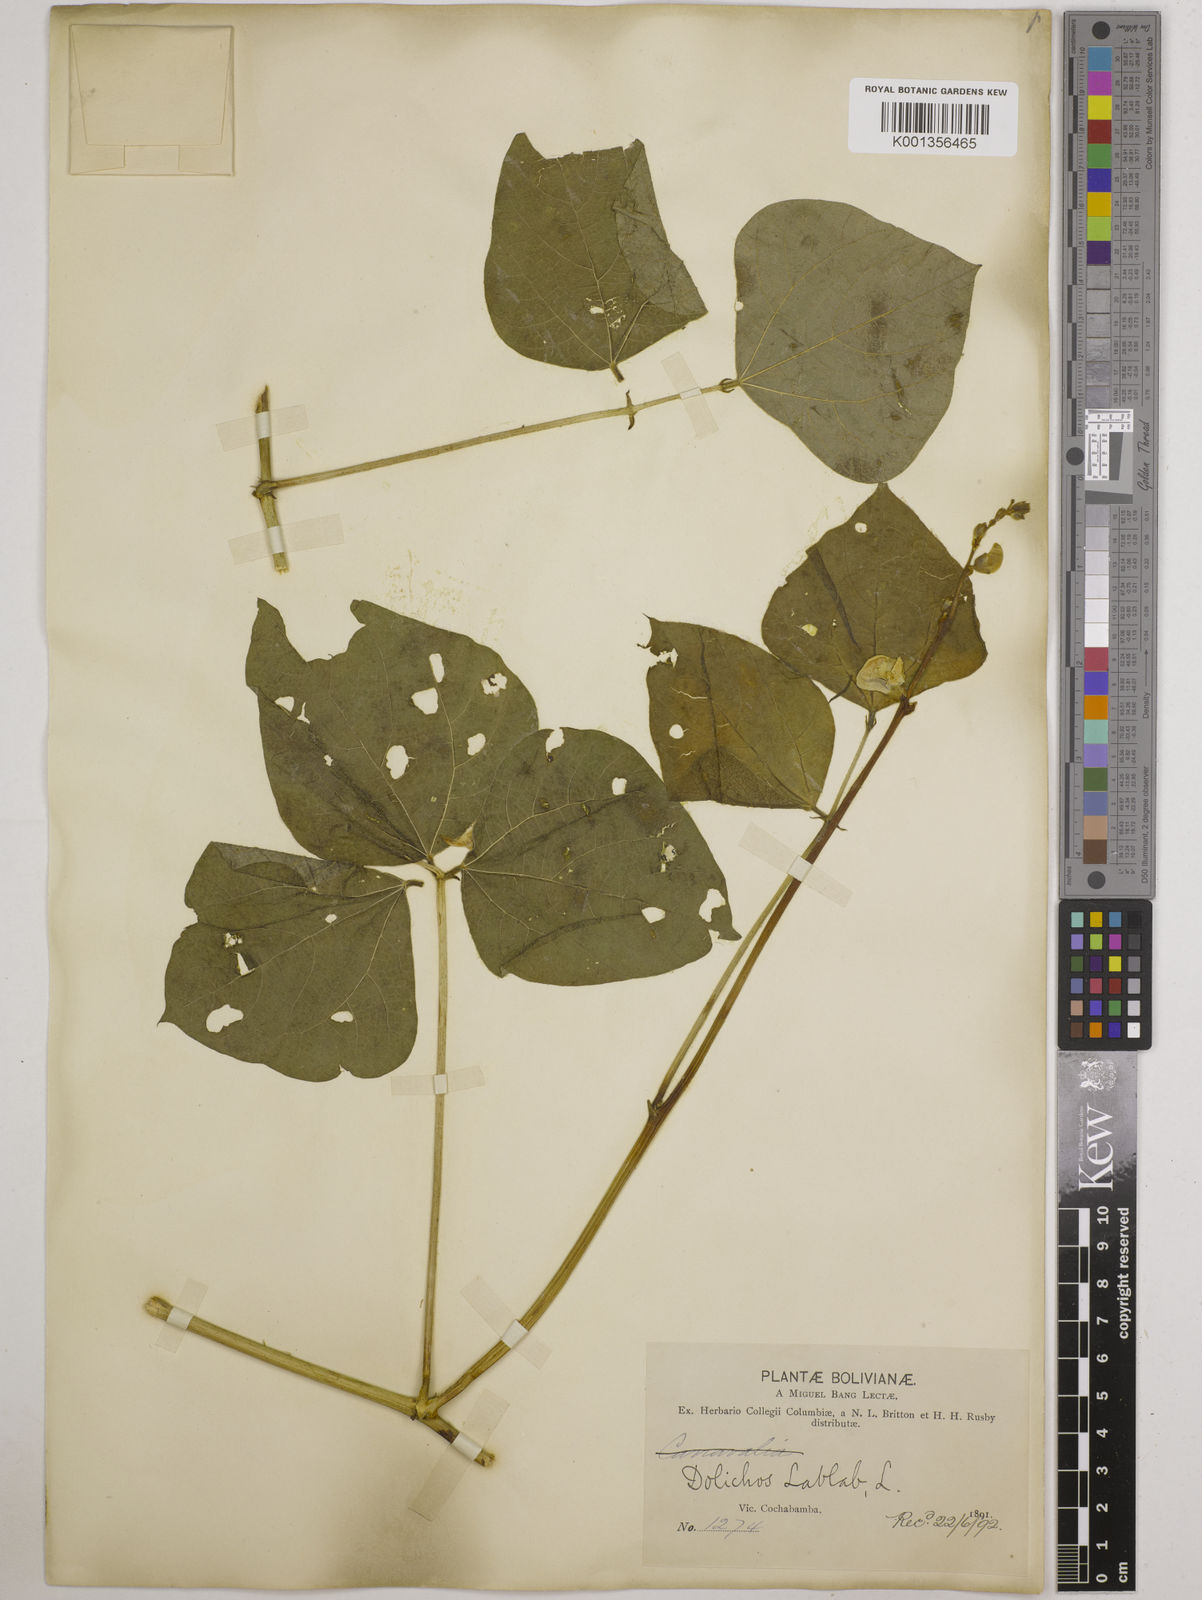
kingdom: Plantae
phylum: Tracheophyta
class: Magnoliopsida
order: Fabales
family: Fabaceae
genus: Lablab
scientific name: Lablab purpureus
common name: Lablab-bean
